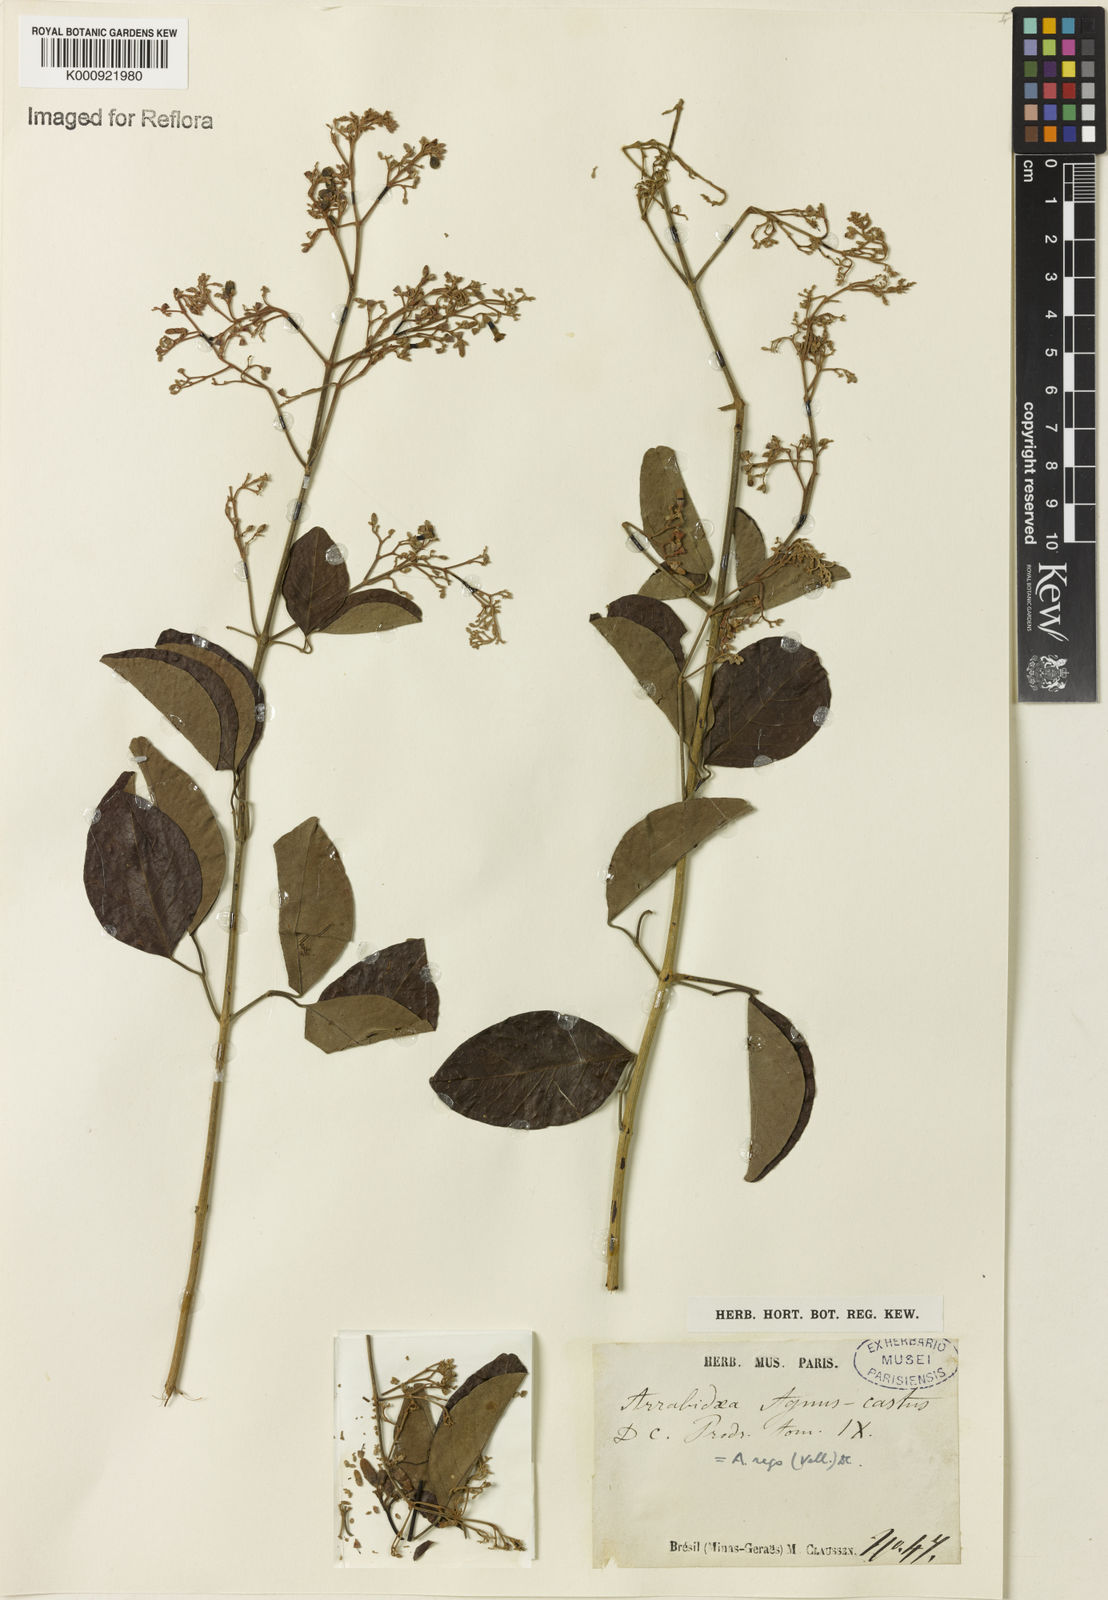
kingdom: Plantae
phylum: Tracheophyta
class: Magnoliopsida
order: Lamiales
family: Bignoniaceae
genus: Fridericia
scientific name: Fridericia rego
